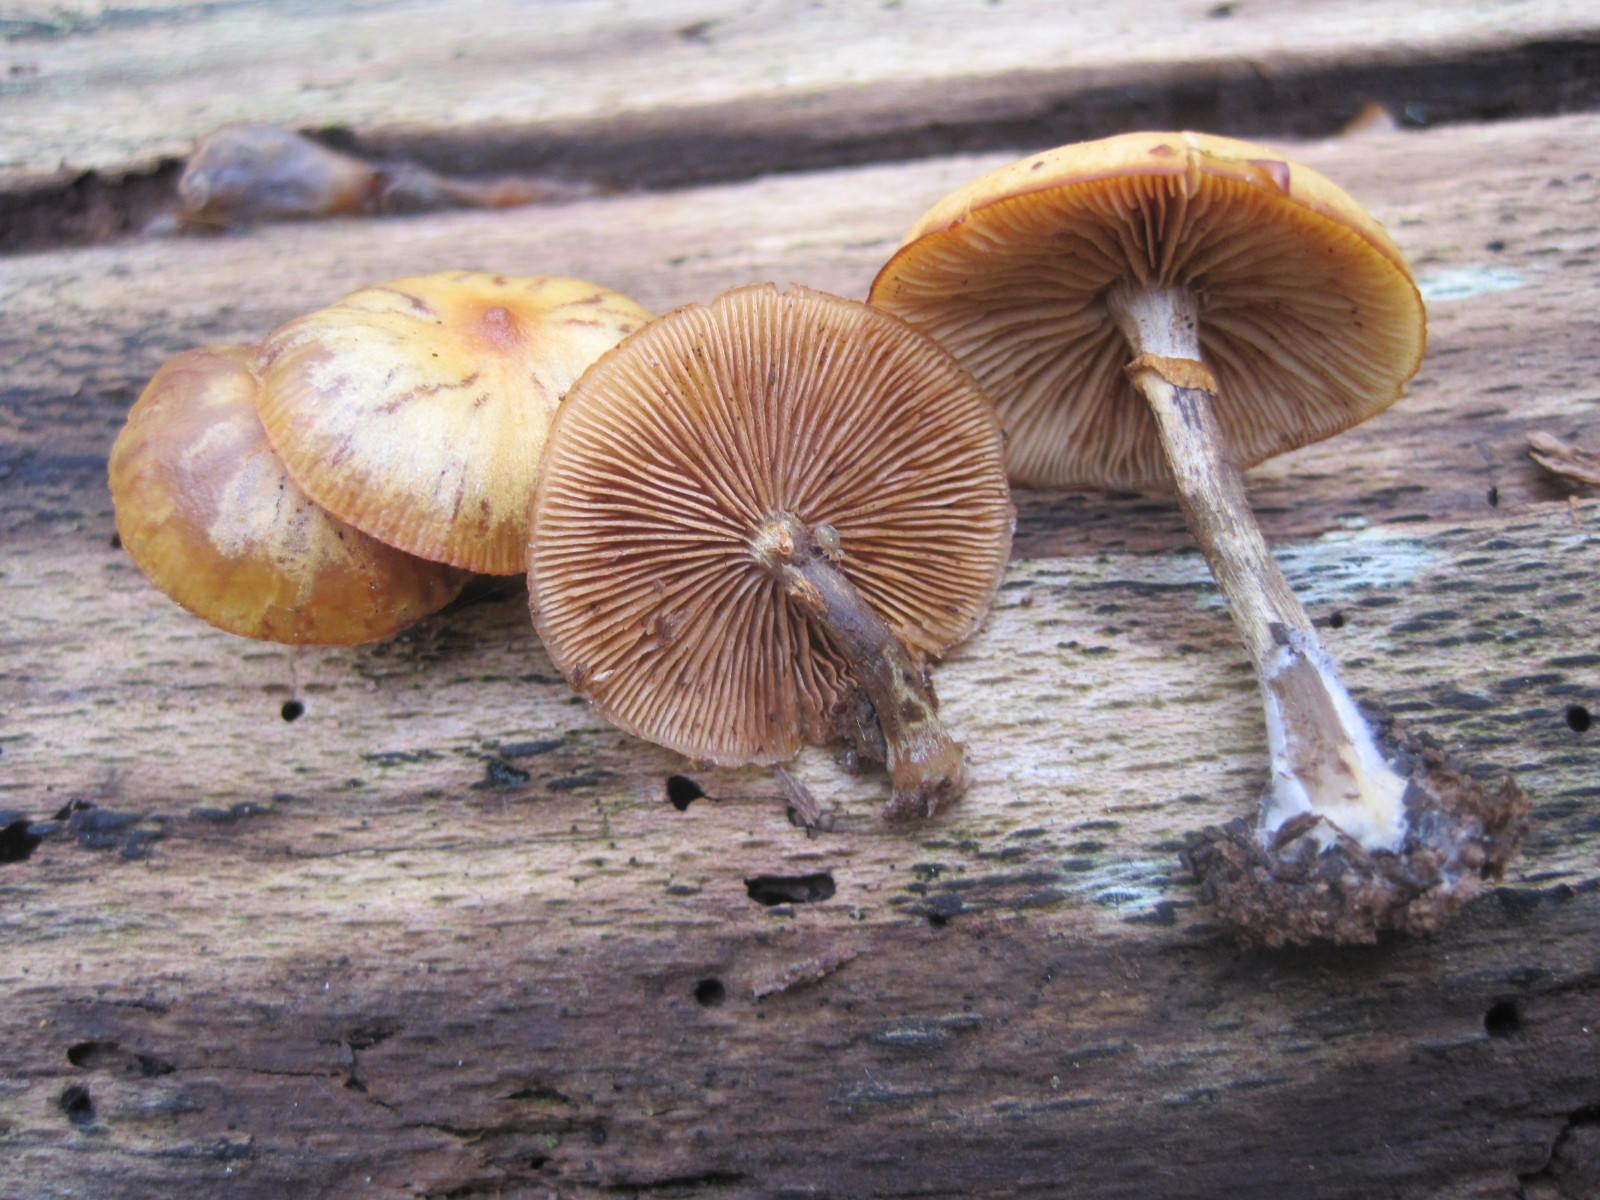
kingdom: Fungi
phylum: Basidiomycota
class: Agaricomycetes
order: Agaricales
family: Hymenogastraceae
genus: Galerina
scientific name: Galerina marginata
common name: randbæltet hjelmhat
